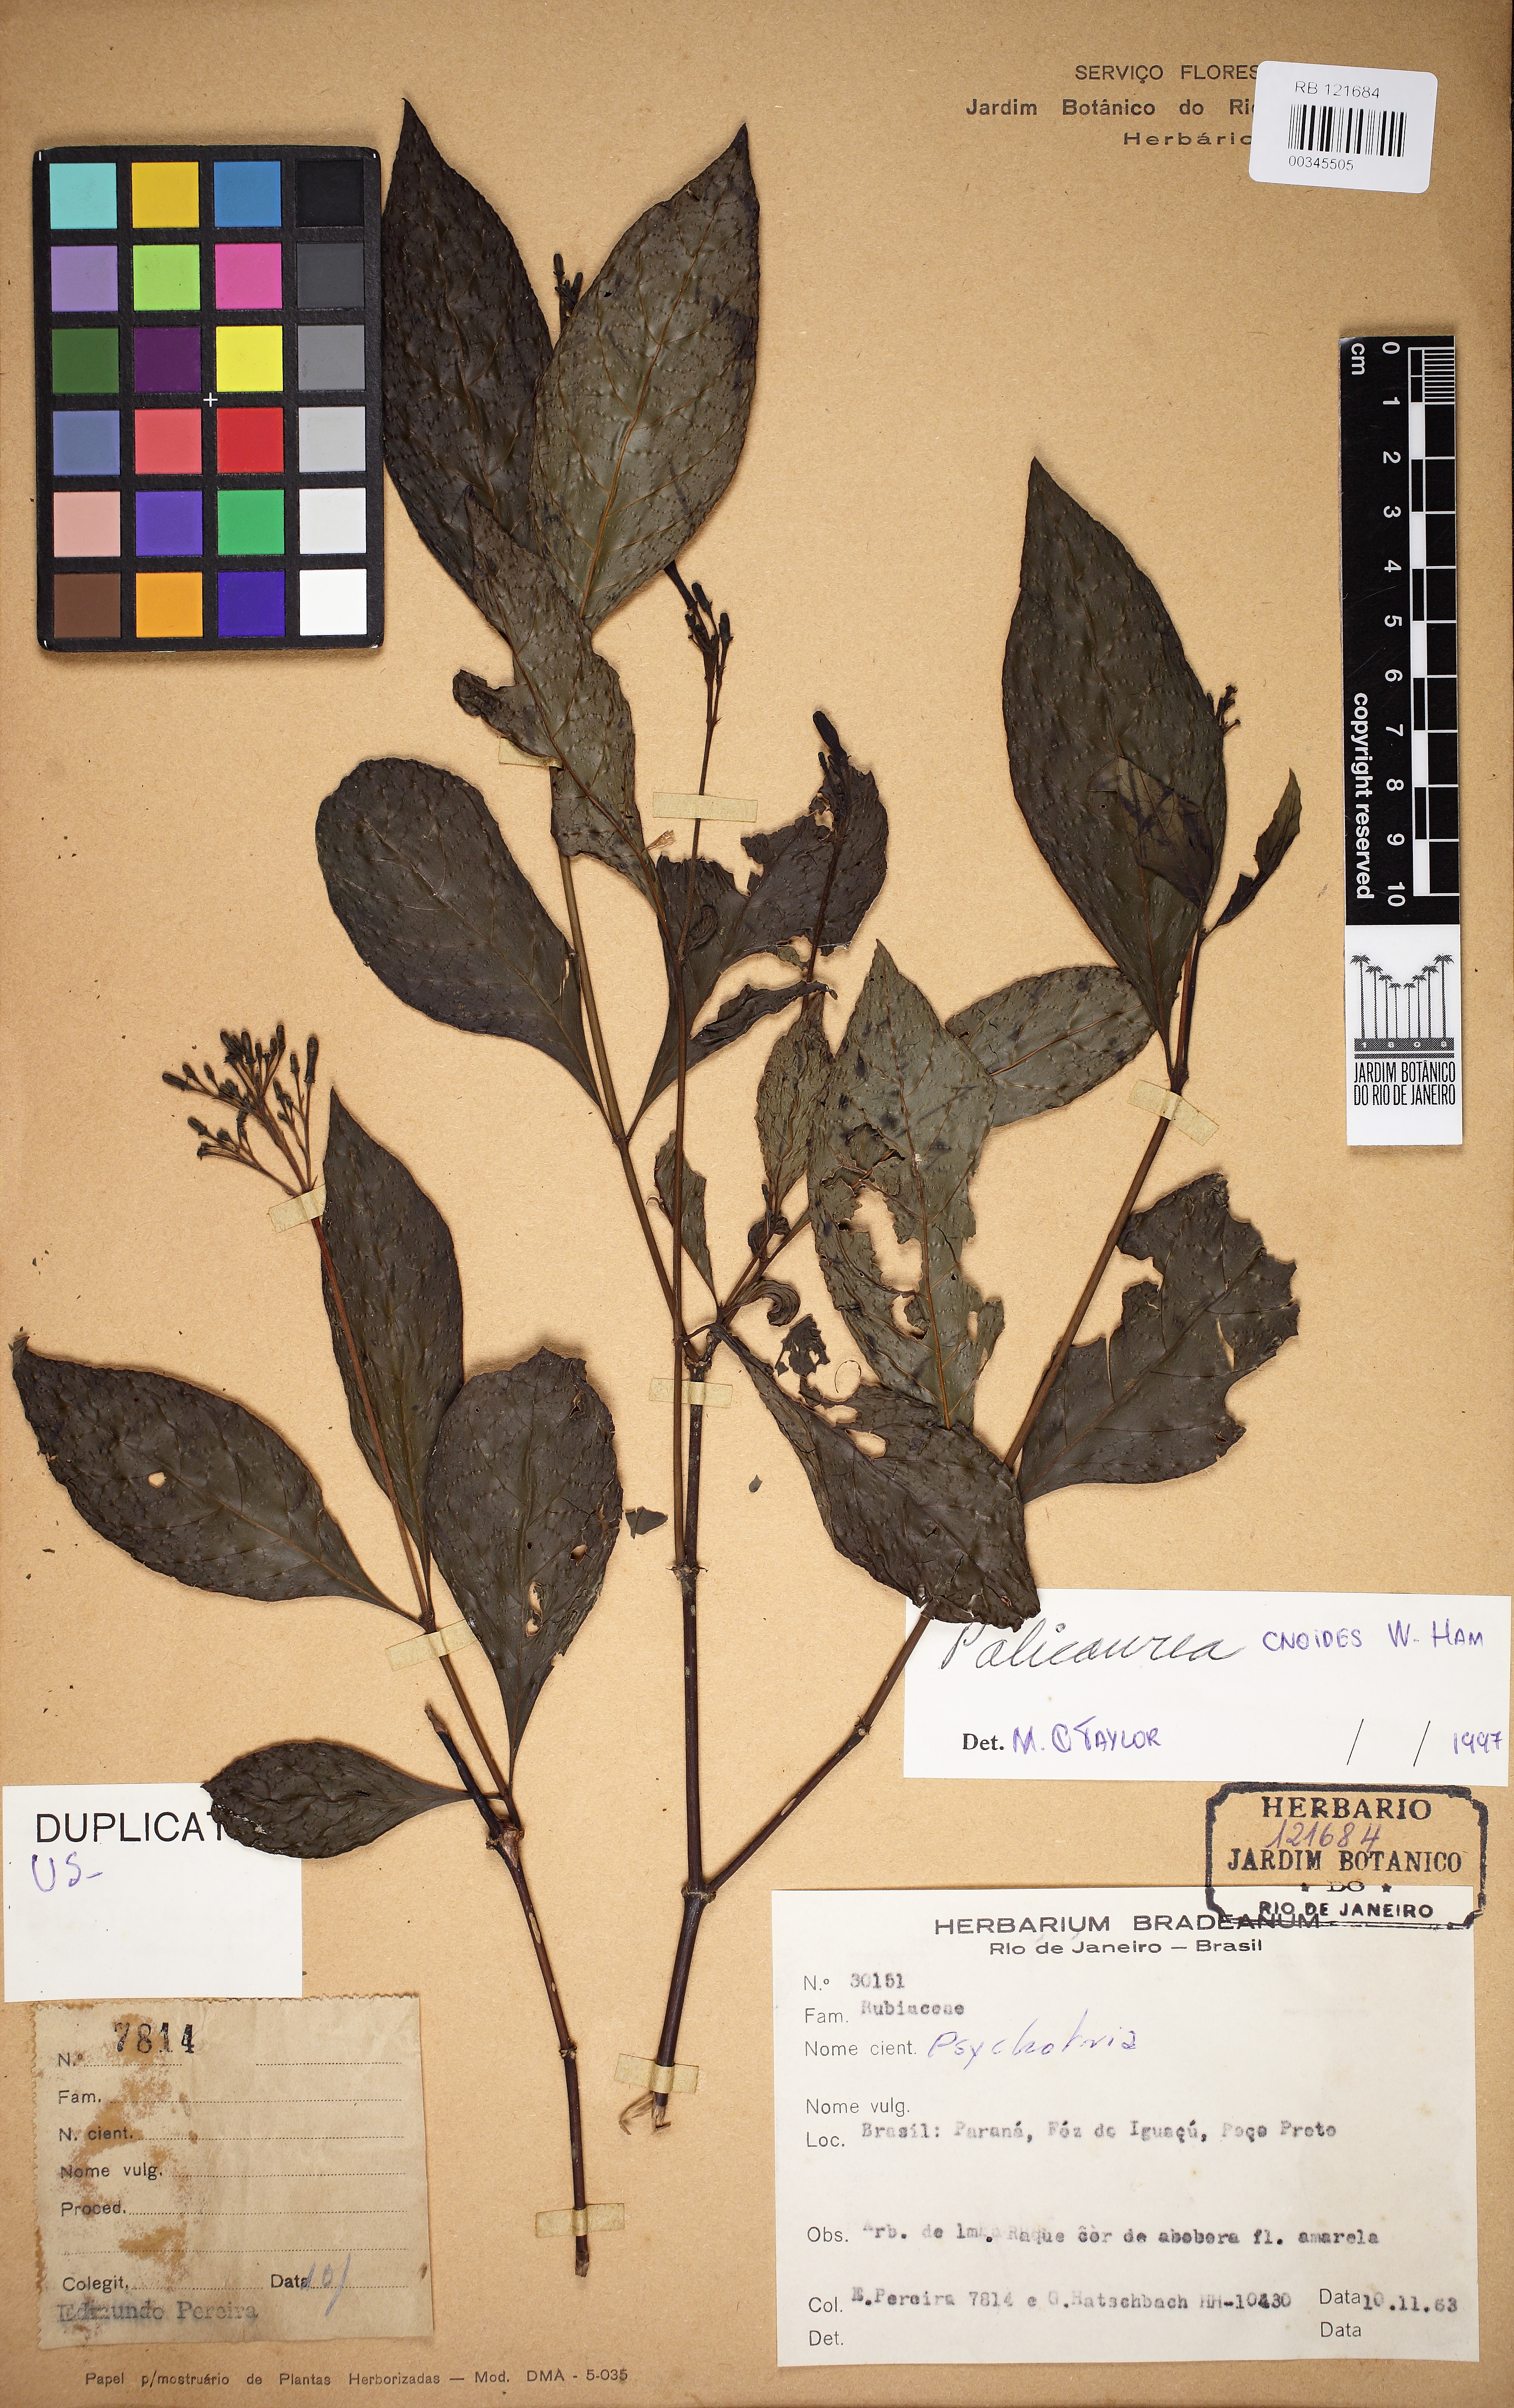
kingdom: Plantae
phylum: Tracheophyta
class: Magnoliopsida
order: Gentianales
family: Rubiaceae
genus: Palicourea
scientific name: Palicourea
